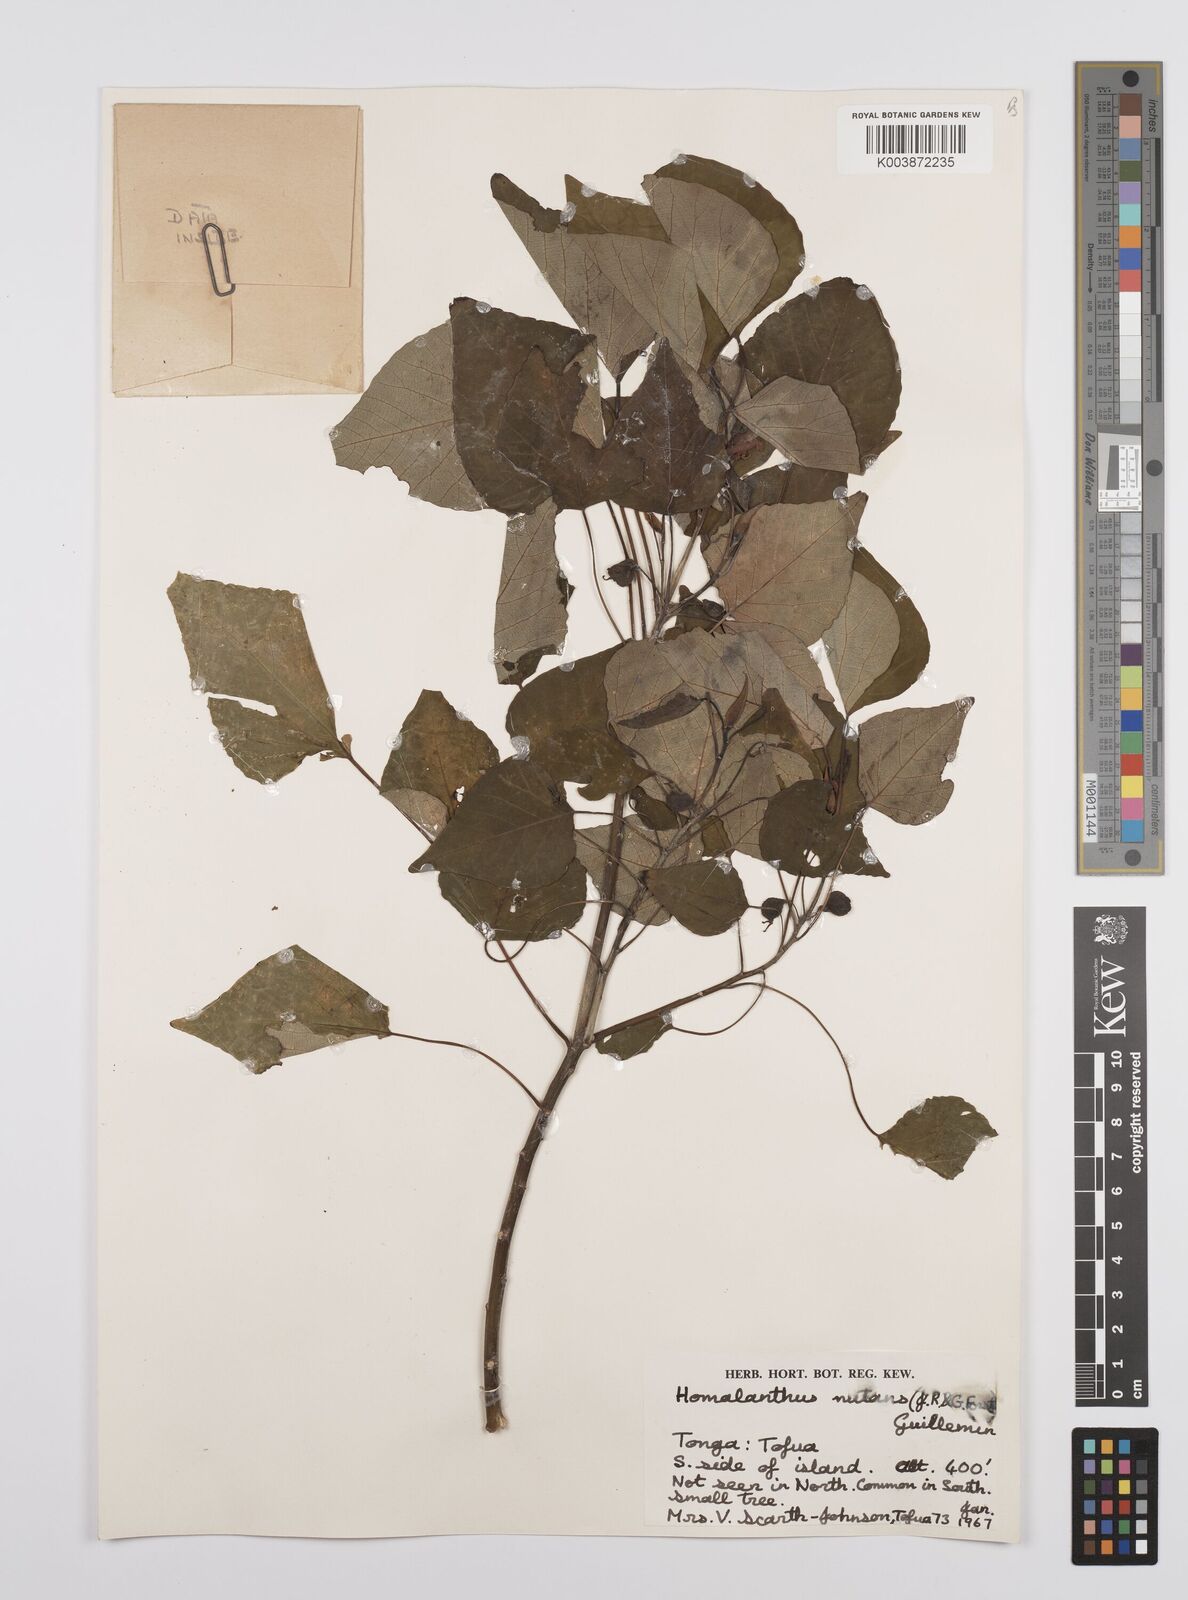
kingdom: Plantae
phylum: Tracheophyta
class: Magnoliopsida
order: Malpighiales
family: Euphorbiaceae
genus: Homalanthus
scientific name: Homalanthus nutans
